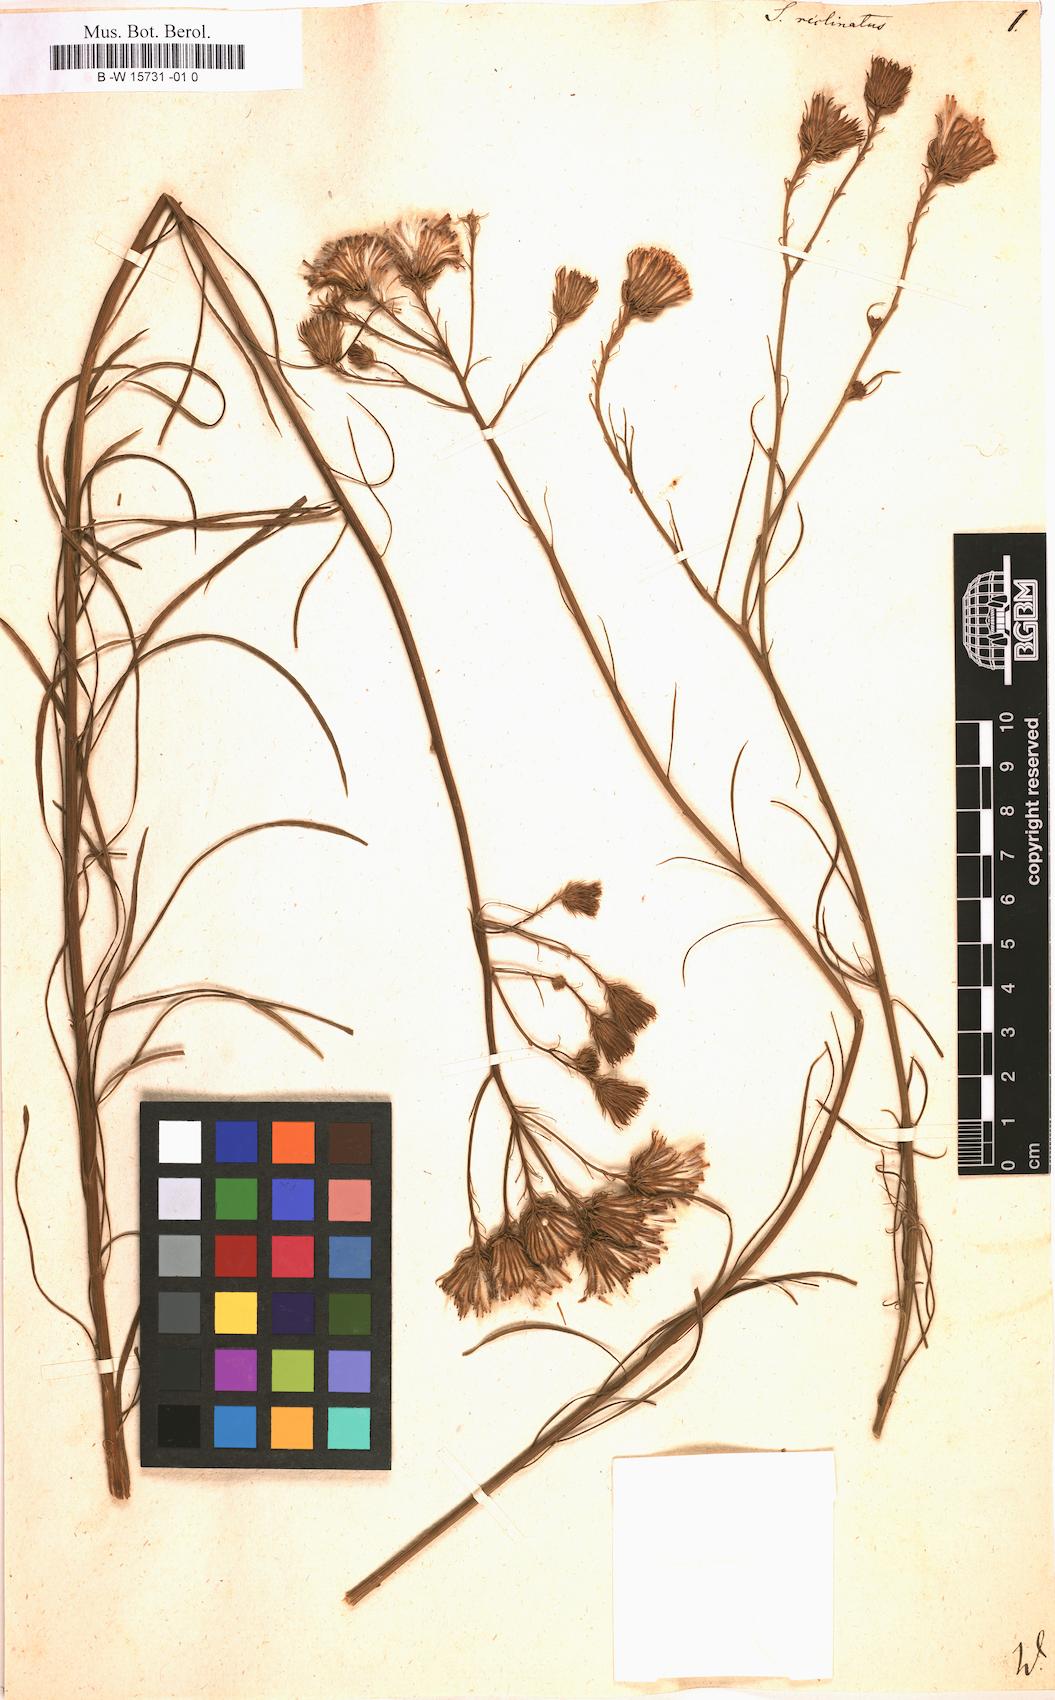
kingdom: Plantae
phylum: Tracheophyta
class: Magnoliopsida
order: Asterales
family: Asteraceae
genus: Senecio
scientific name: Senecio chrysocoma
